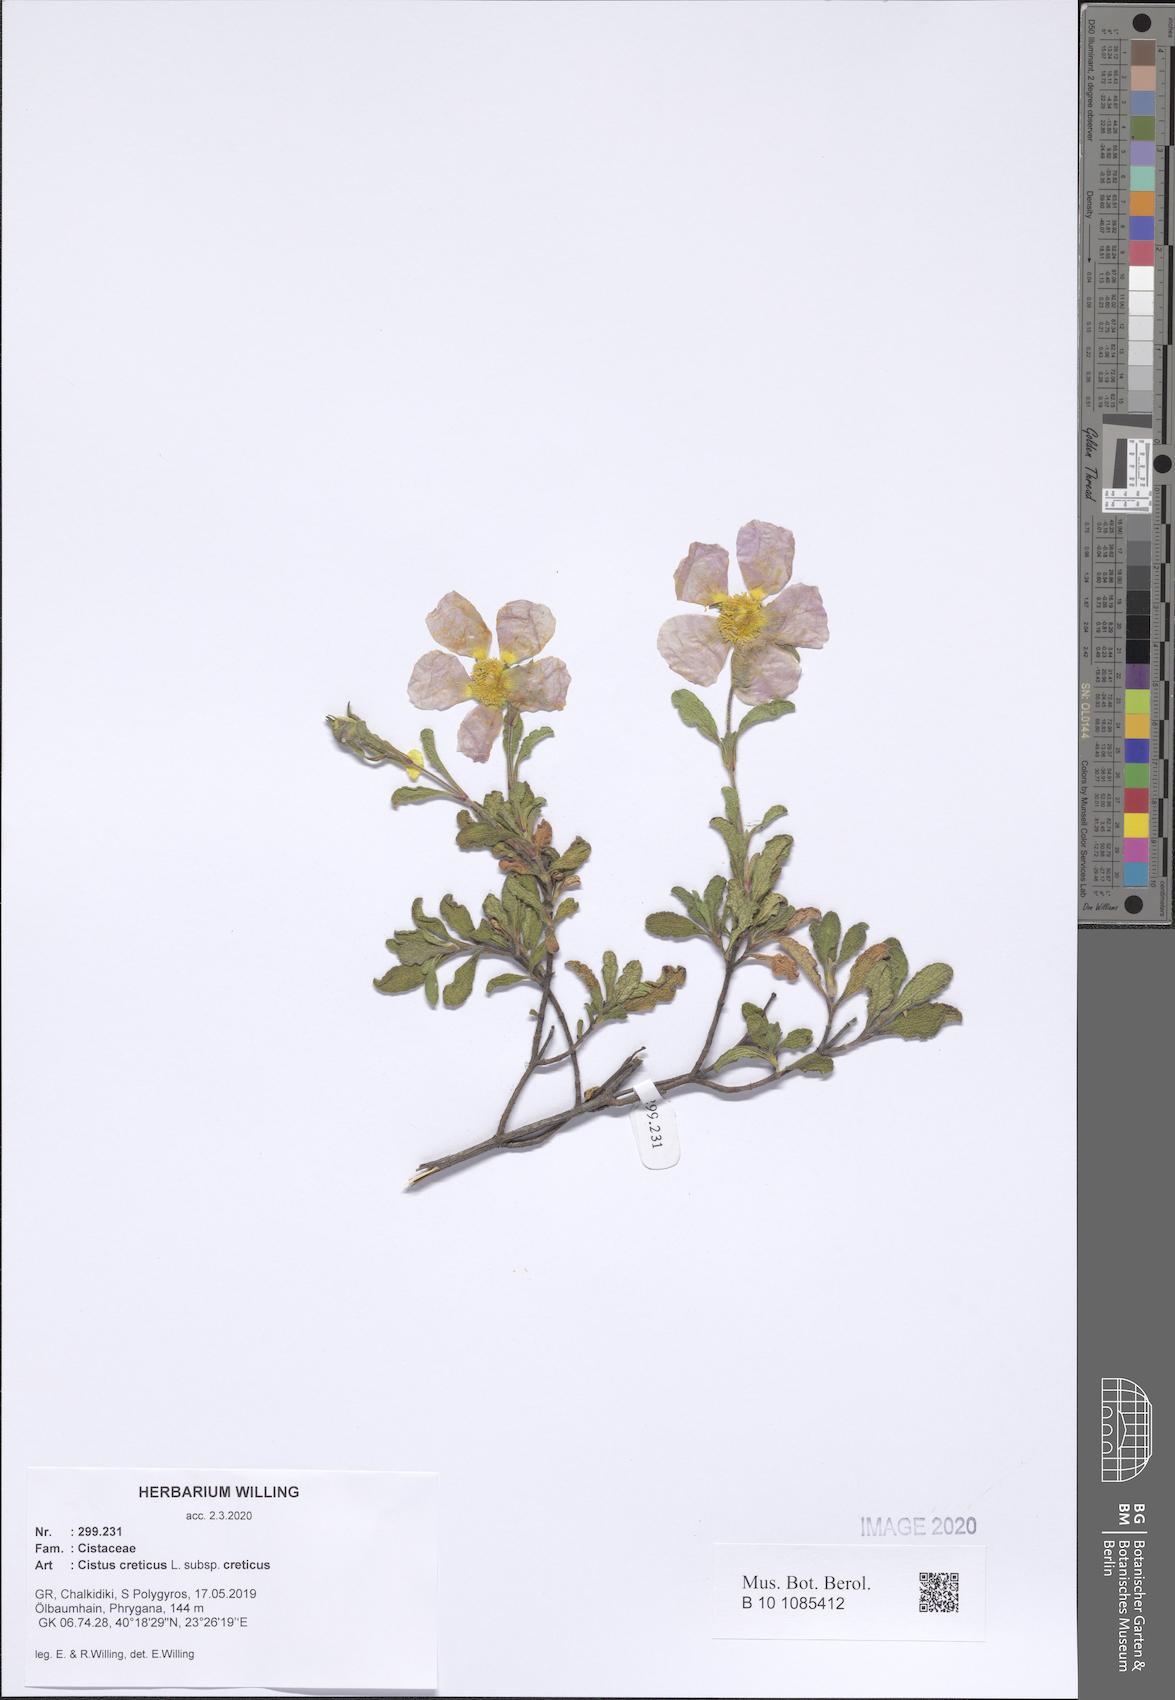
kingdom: Plantae
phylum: Tracheophyta
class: Magnoliopsida
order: Malvales
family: Cistaceae
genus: Cistus
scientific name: Cistus creticus
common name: Cretan rockrose
